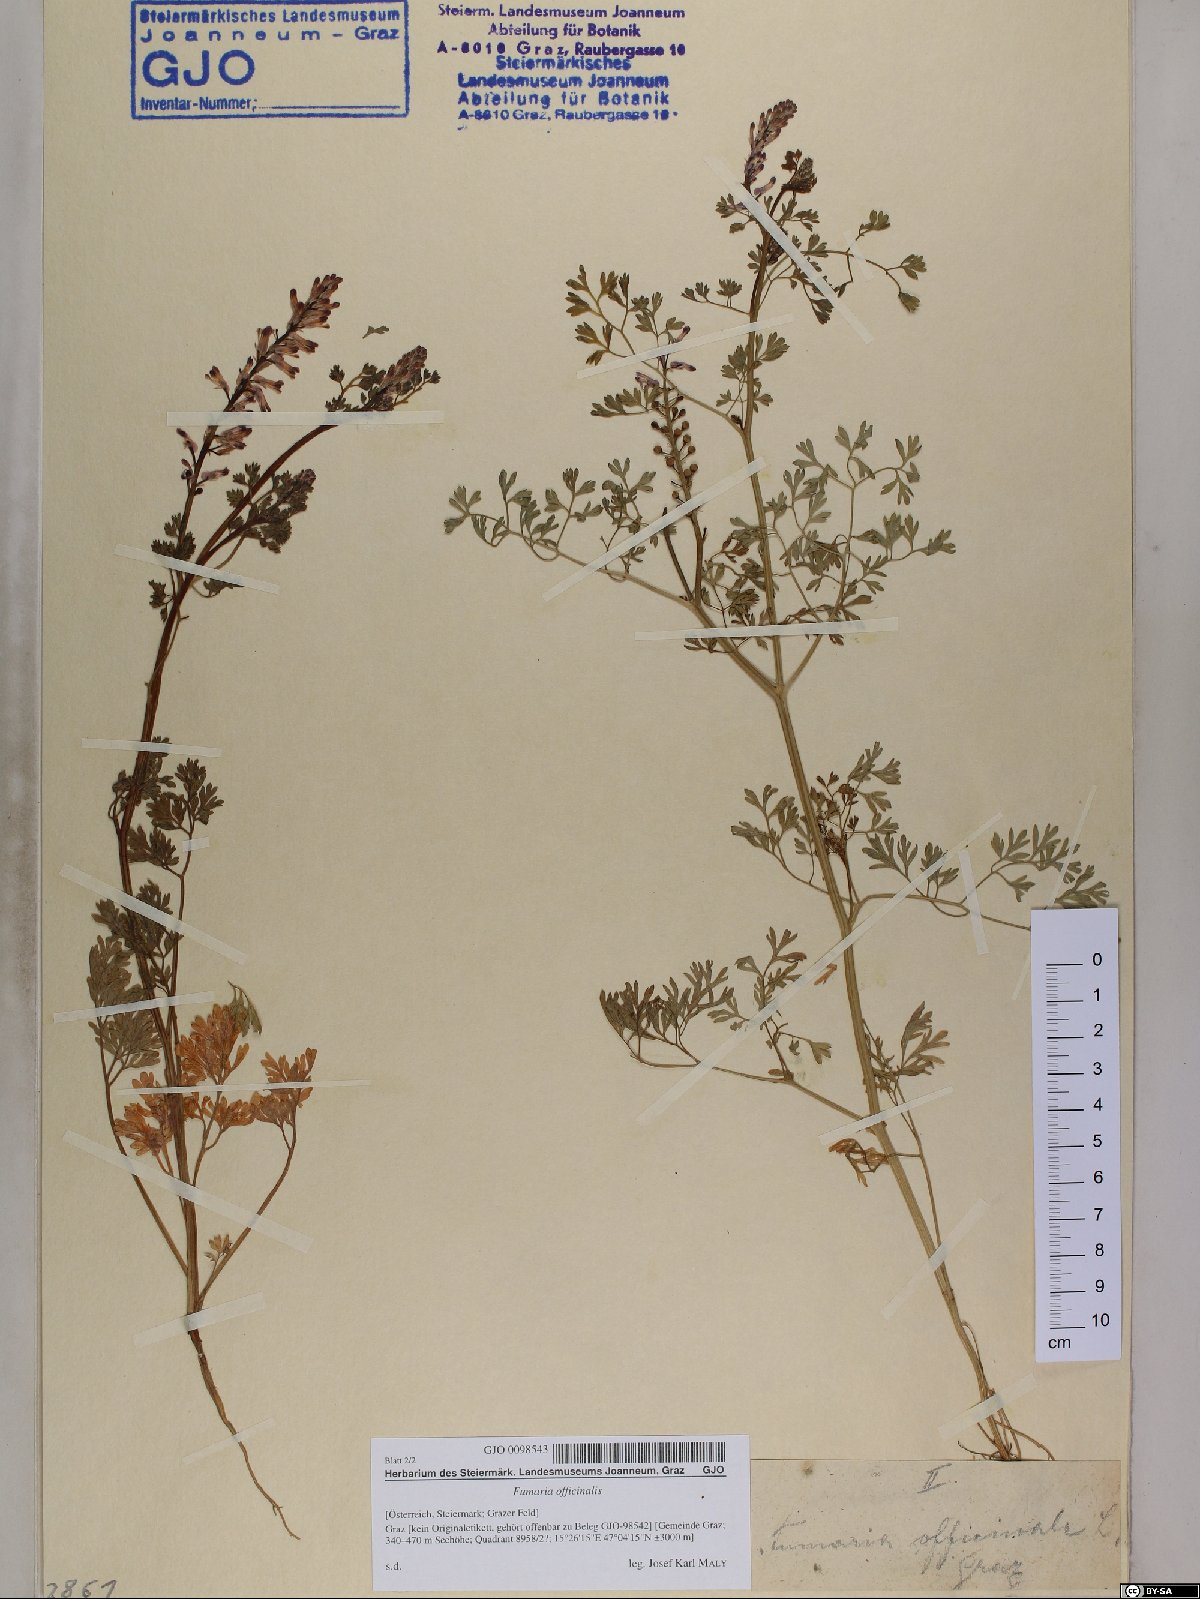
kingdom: Plantae
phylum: Tracheophyta
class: Magnoliopsida
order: Ranunculales
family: Papaveraceae
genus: Fumaria
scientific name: Fumaria officinalis
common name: Common fumitory
